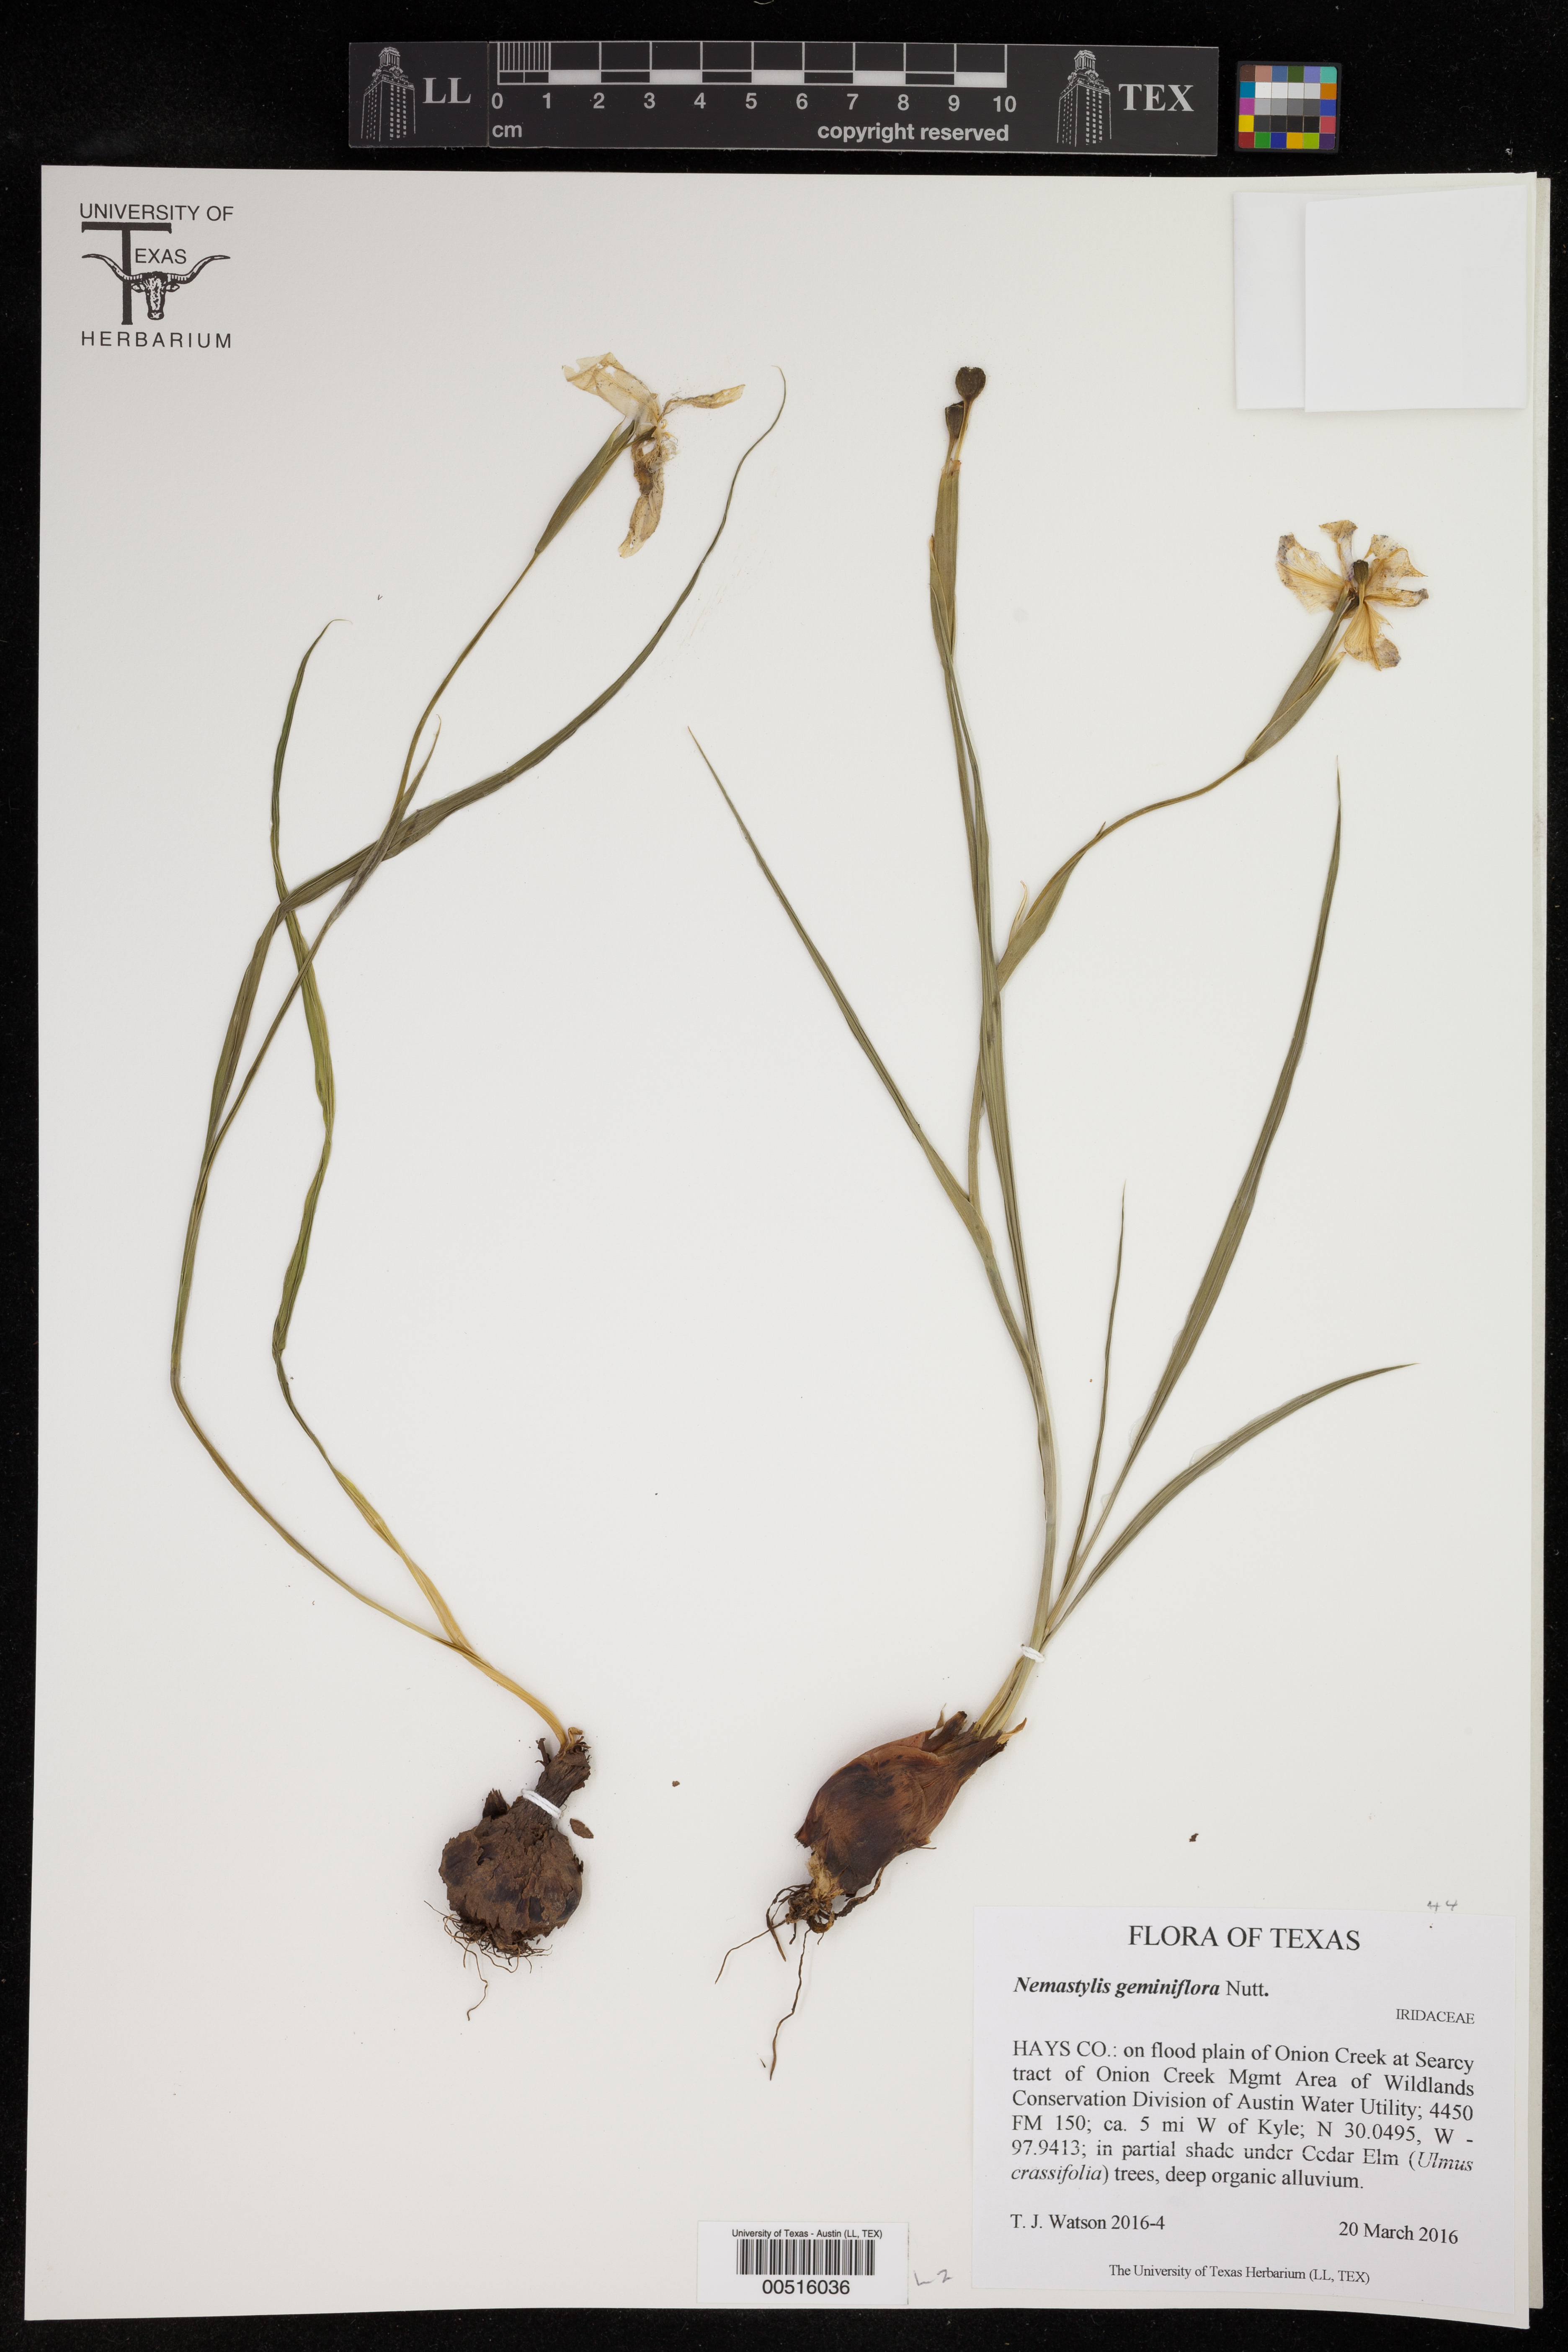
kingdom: Plantae
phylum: Tracheophyta
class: Liliopsida
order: Asparagales
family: Iridaceae
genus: Nemastylis
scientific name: Nemastylis geminiflora
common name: Prairie celestial
